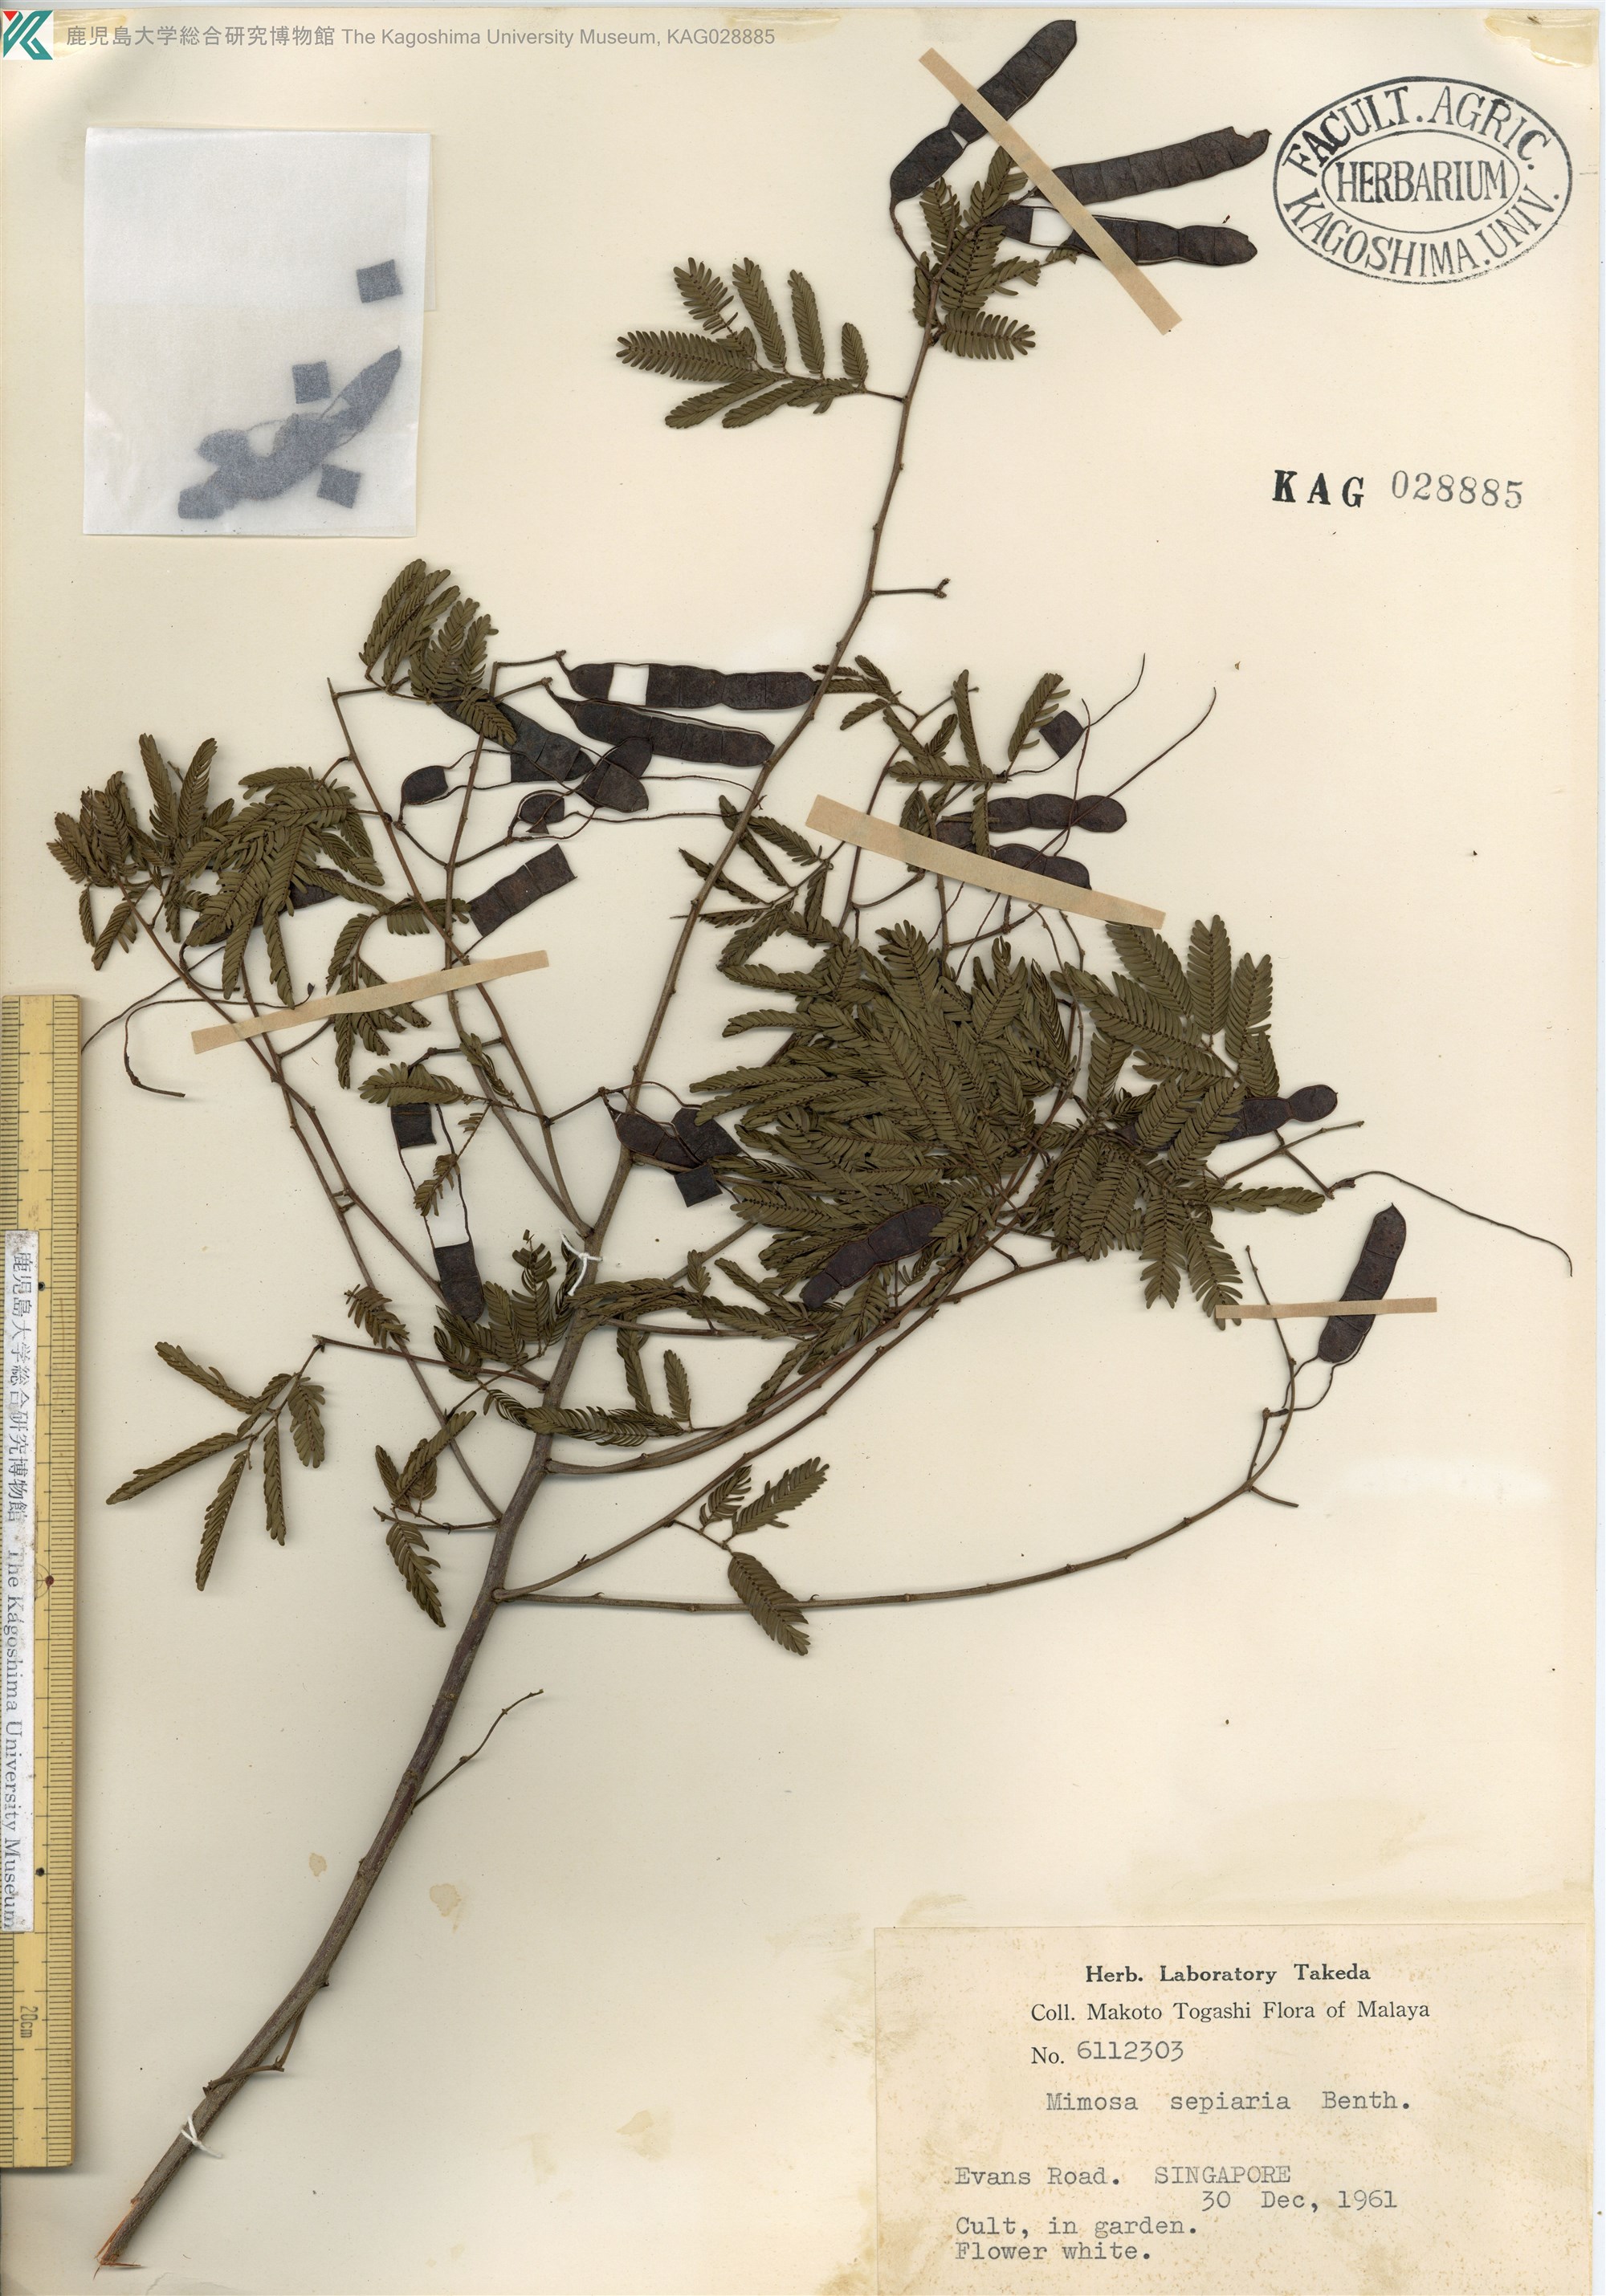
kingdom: Plantae
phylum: Tracheophyta
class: Magnoliopsida
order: Fabales
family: Fabaceae
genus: Mimosa
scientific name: Mimosa
